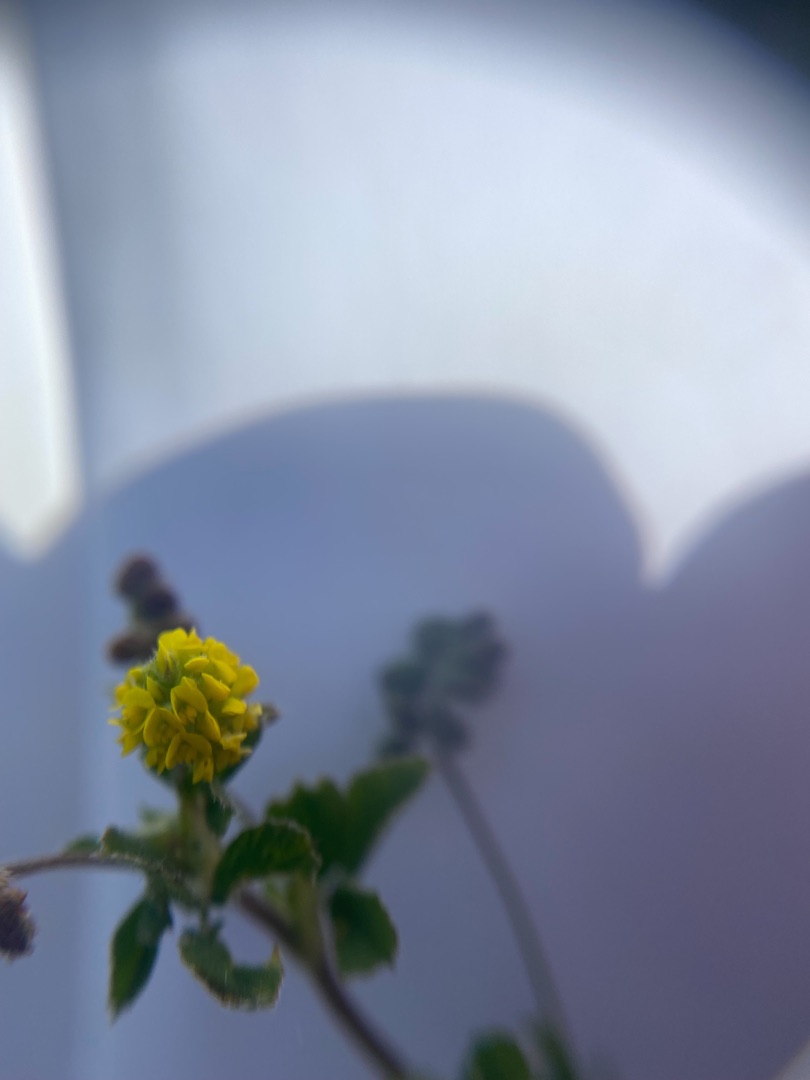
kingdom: Plantae
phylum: Tracheophyta
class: Magnoliopsida
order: Fabales
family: Fabaceae
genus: Medicago
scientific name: Medicago lupulina
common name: Humle-sneglebælg
